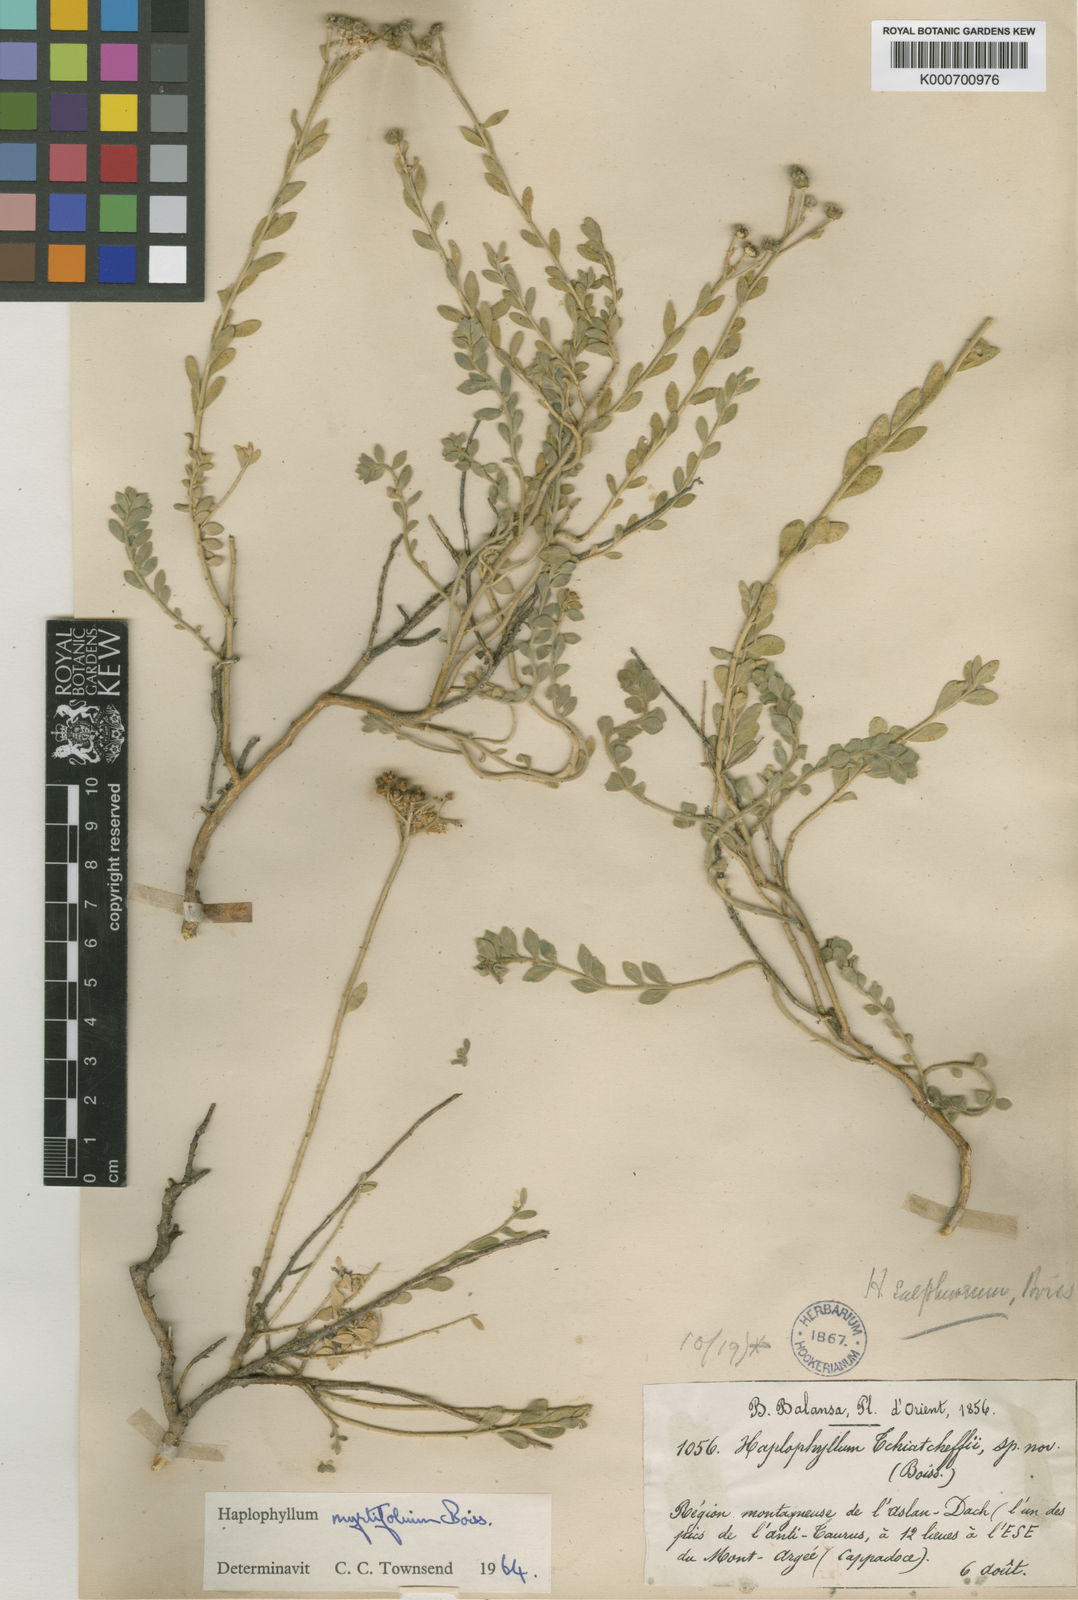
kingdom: Plantae
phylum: Tracheophyta
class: Magnoliopsida
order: Sapindales
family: Rutaceae
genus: Haplophyllum
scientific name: Haplophyllum myrtifolium
